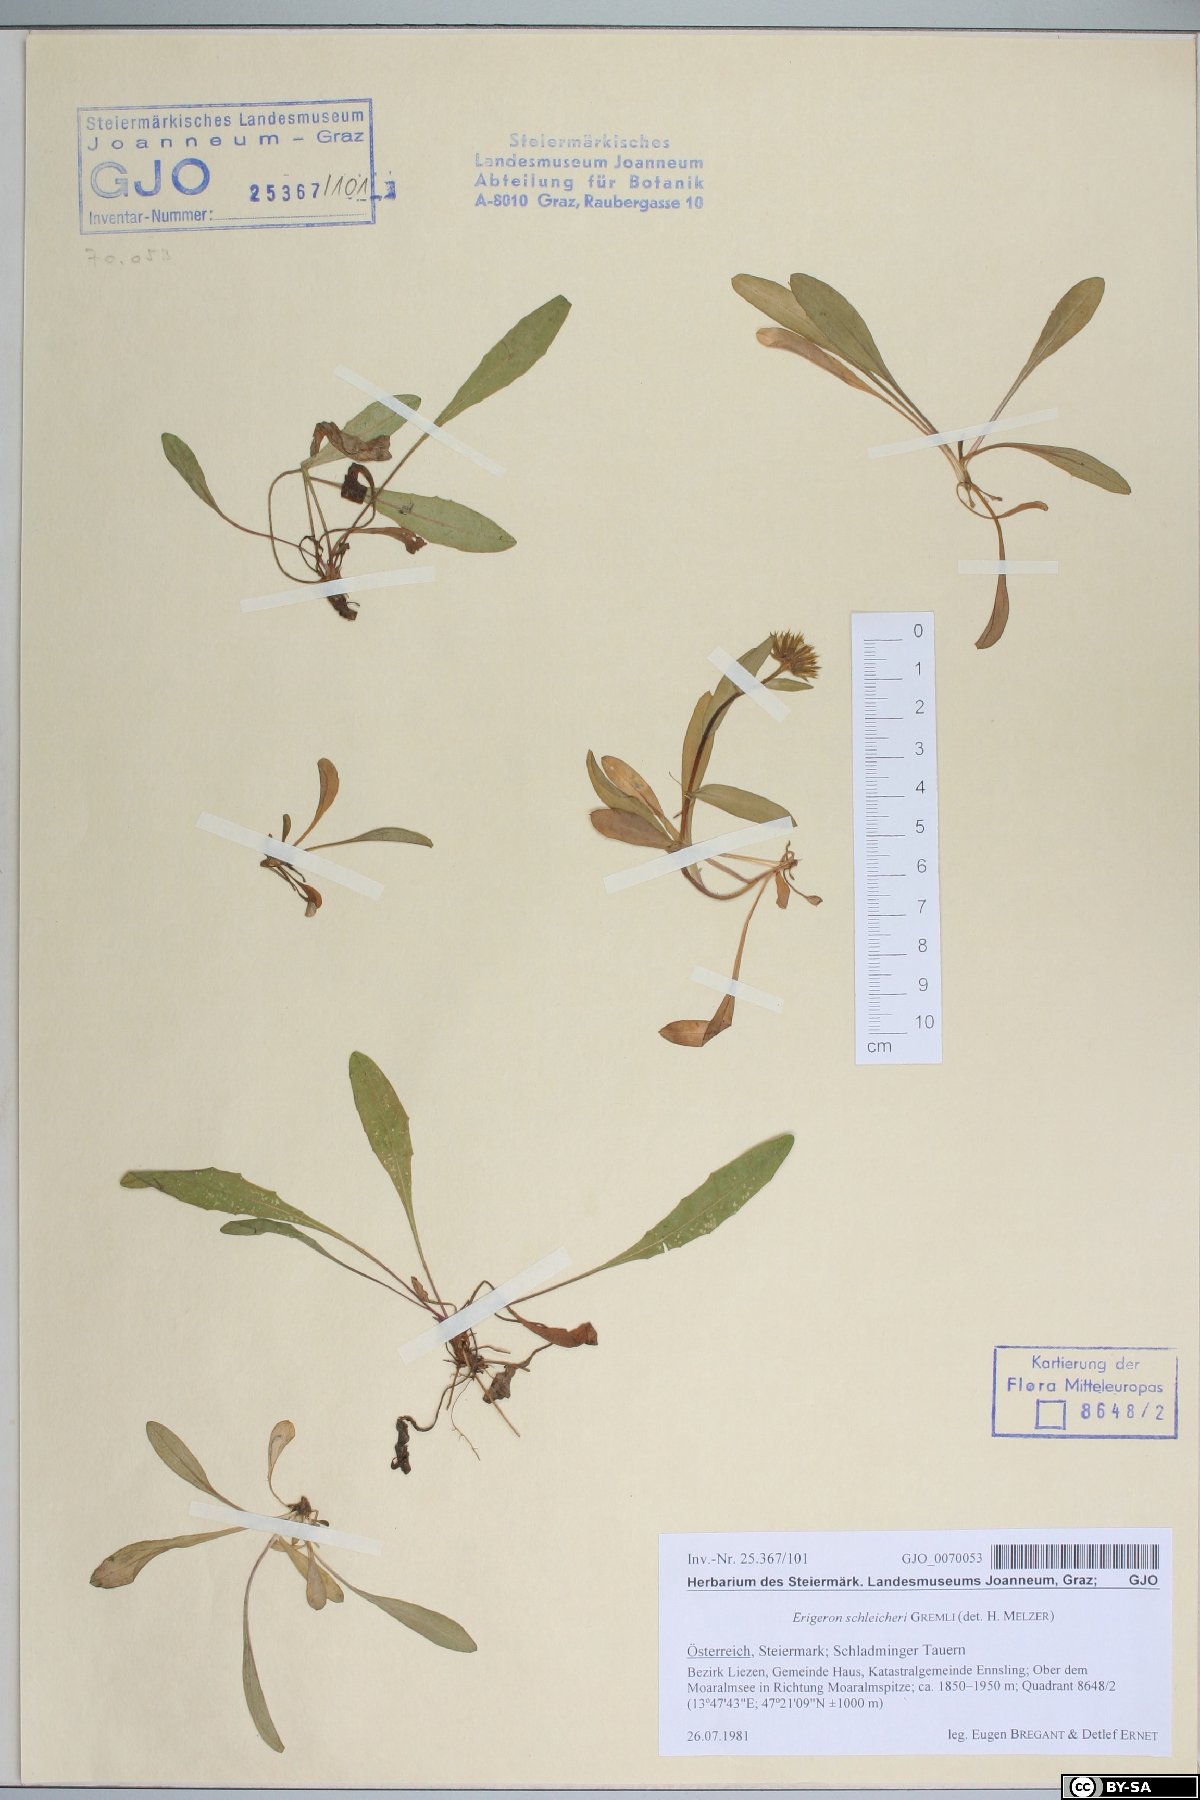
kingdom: Plantae
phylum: Tracheophyta
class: Magnoliopsida
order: Asterales
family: Asteraceae
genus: Erigeron
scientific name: Erigeron schleicheri
